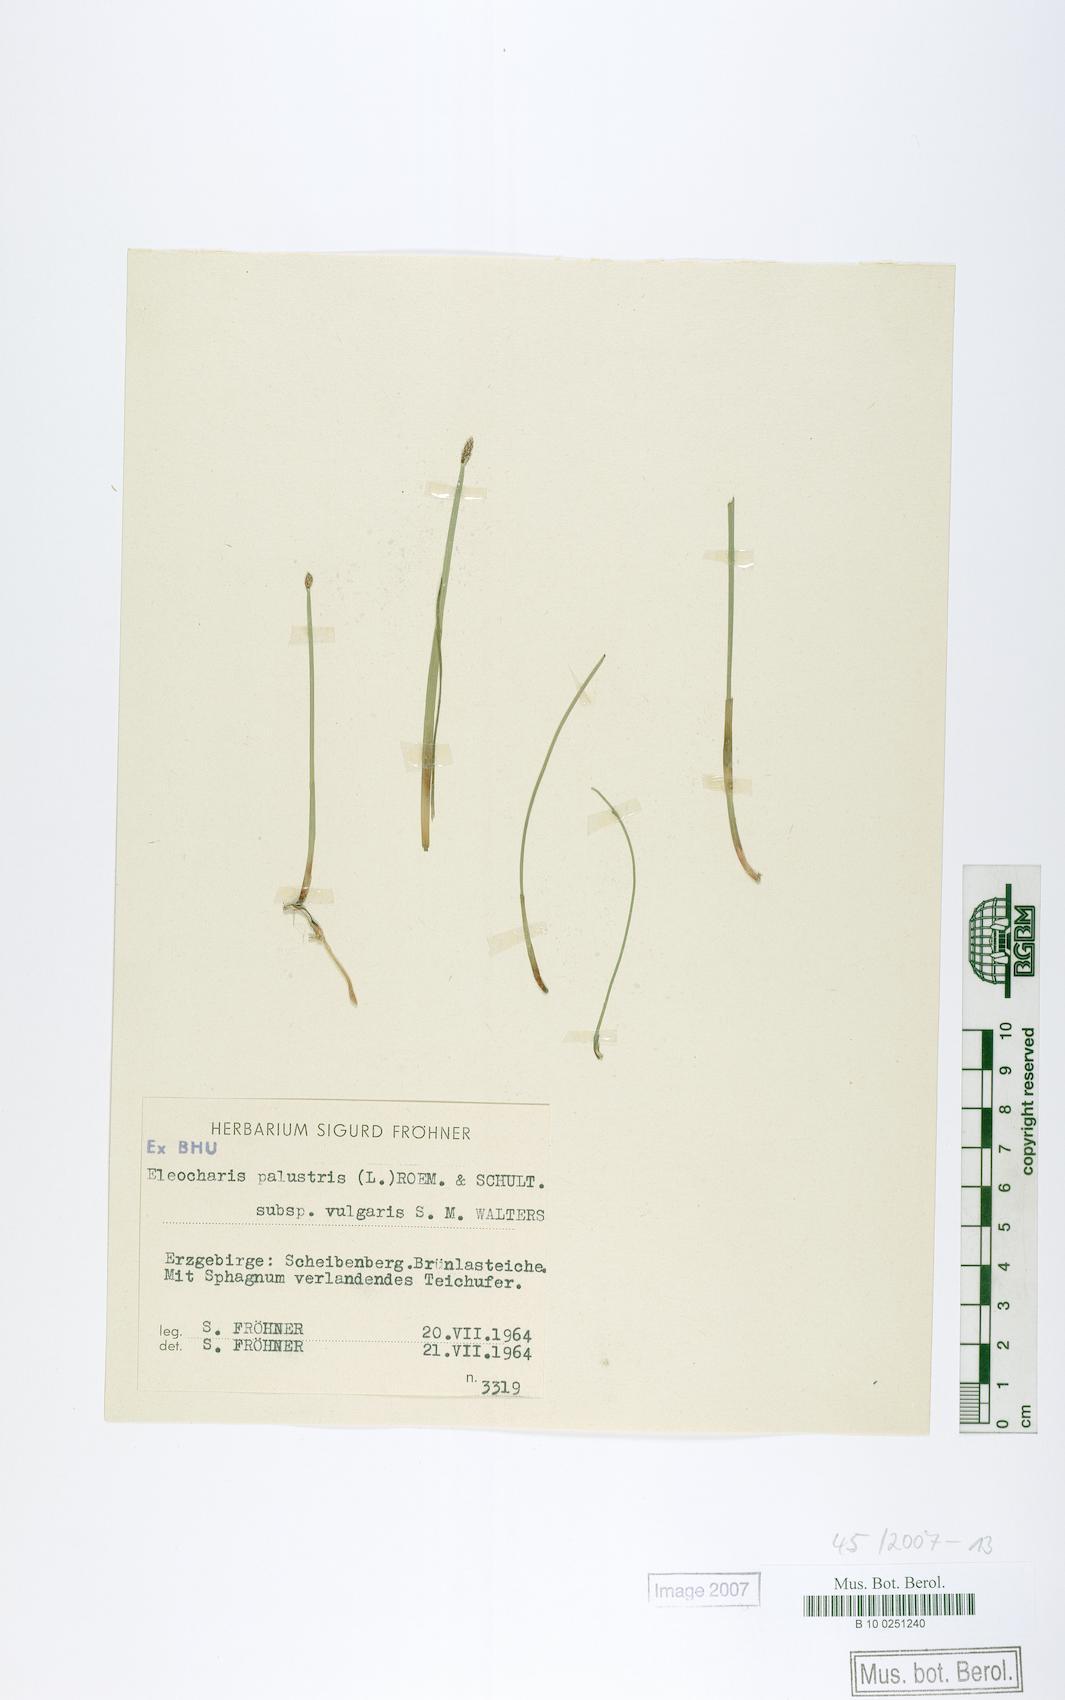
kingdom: Plantae
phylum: Tracheophyta
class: Liliopsida
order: Poales
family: Cyperaceae
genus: Eleocharis
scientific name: Eleocharis palustris
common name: Common spike-rush
